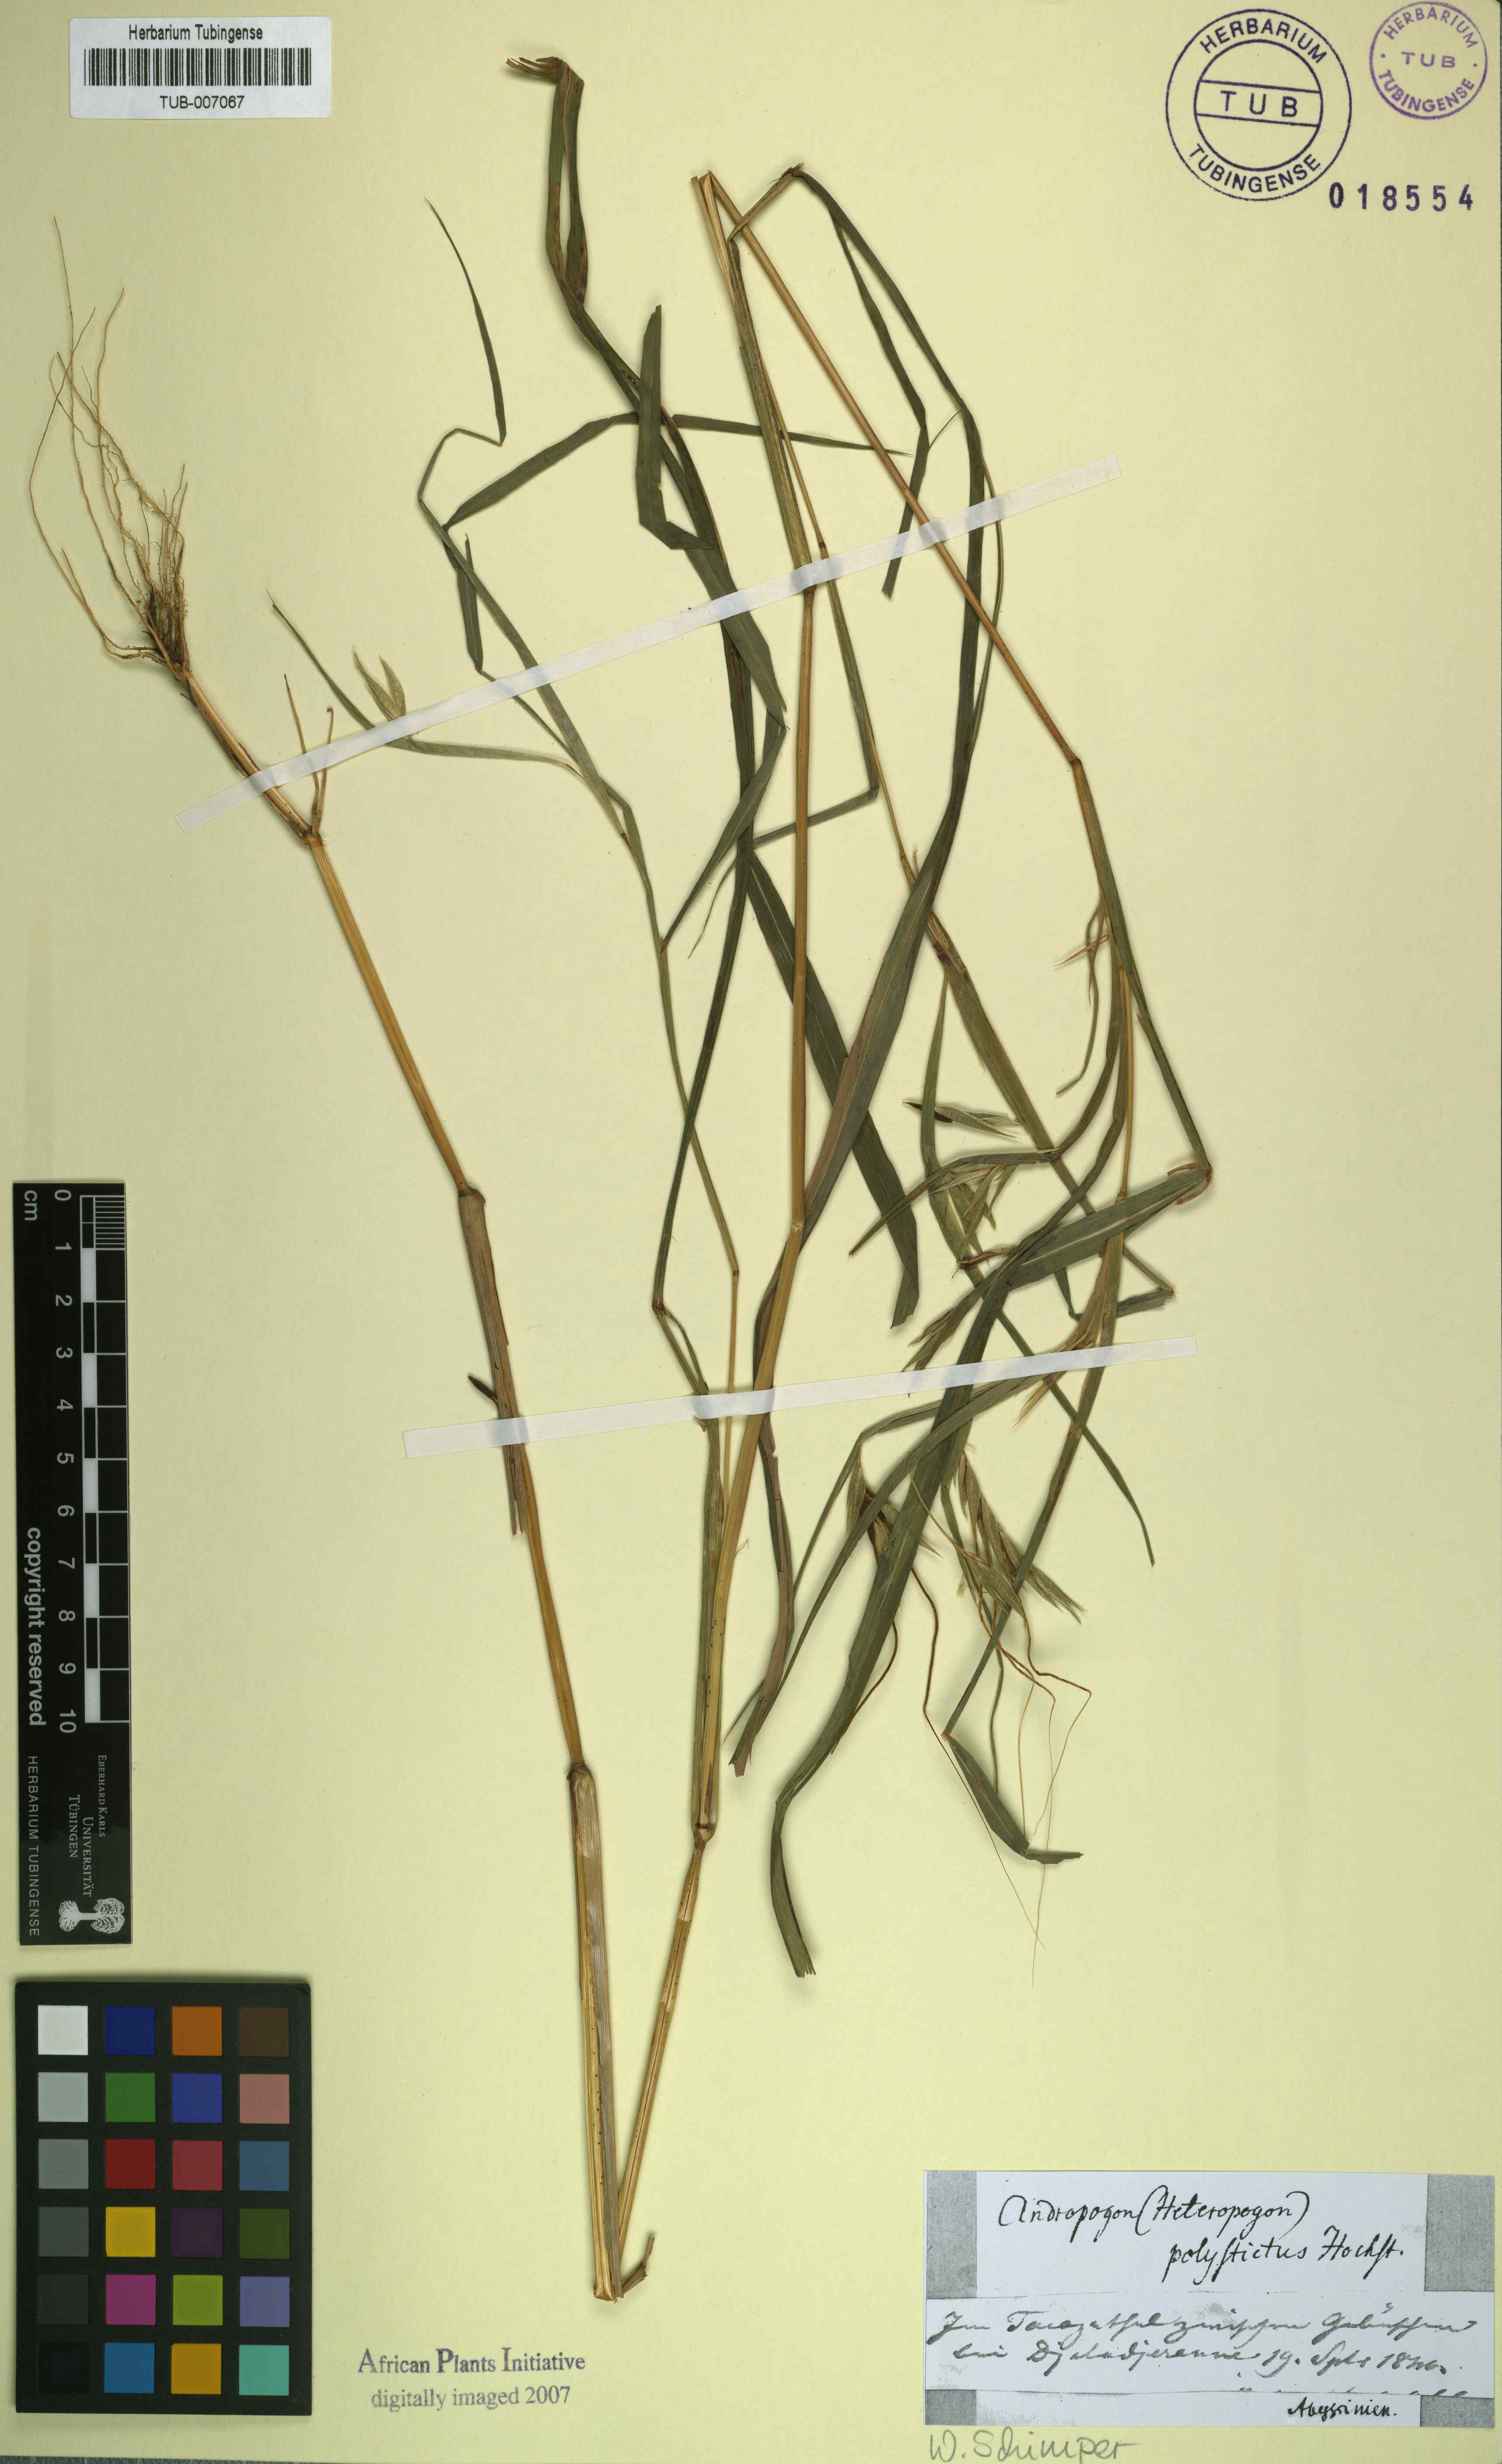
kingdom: Plantae
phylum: Tracheophyta
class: Liliopsida
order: Poales
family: Poaceae
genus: Andropogon
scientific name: Andropogon polystichus
